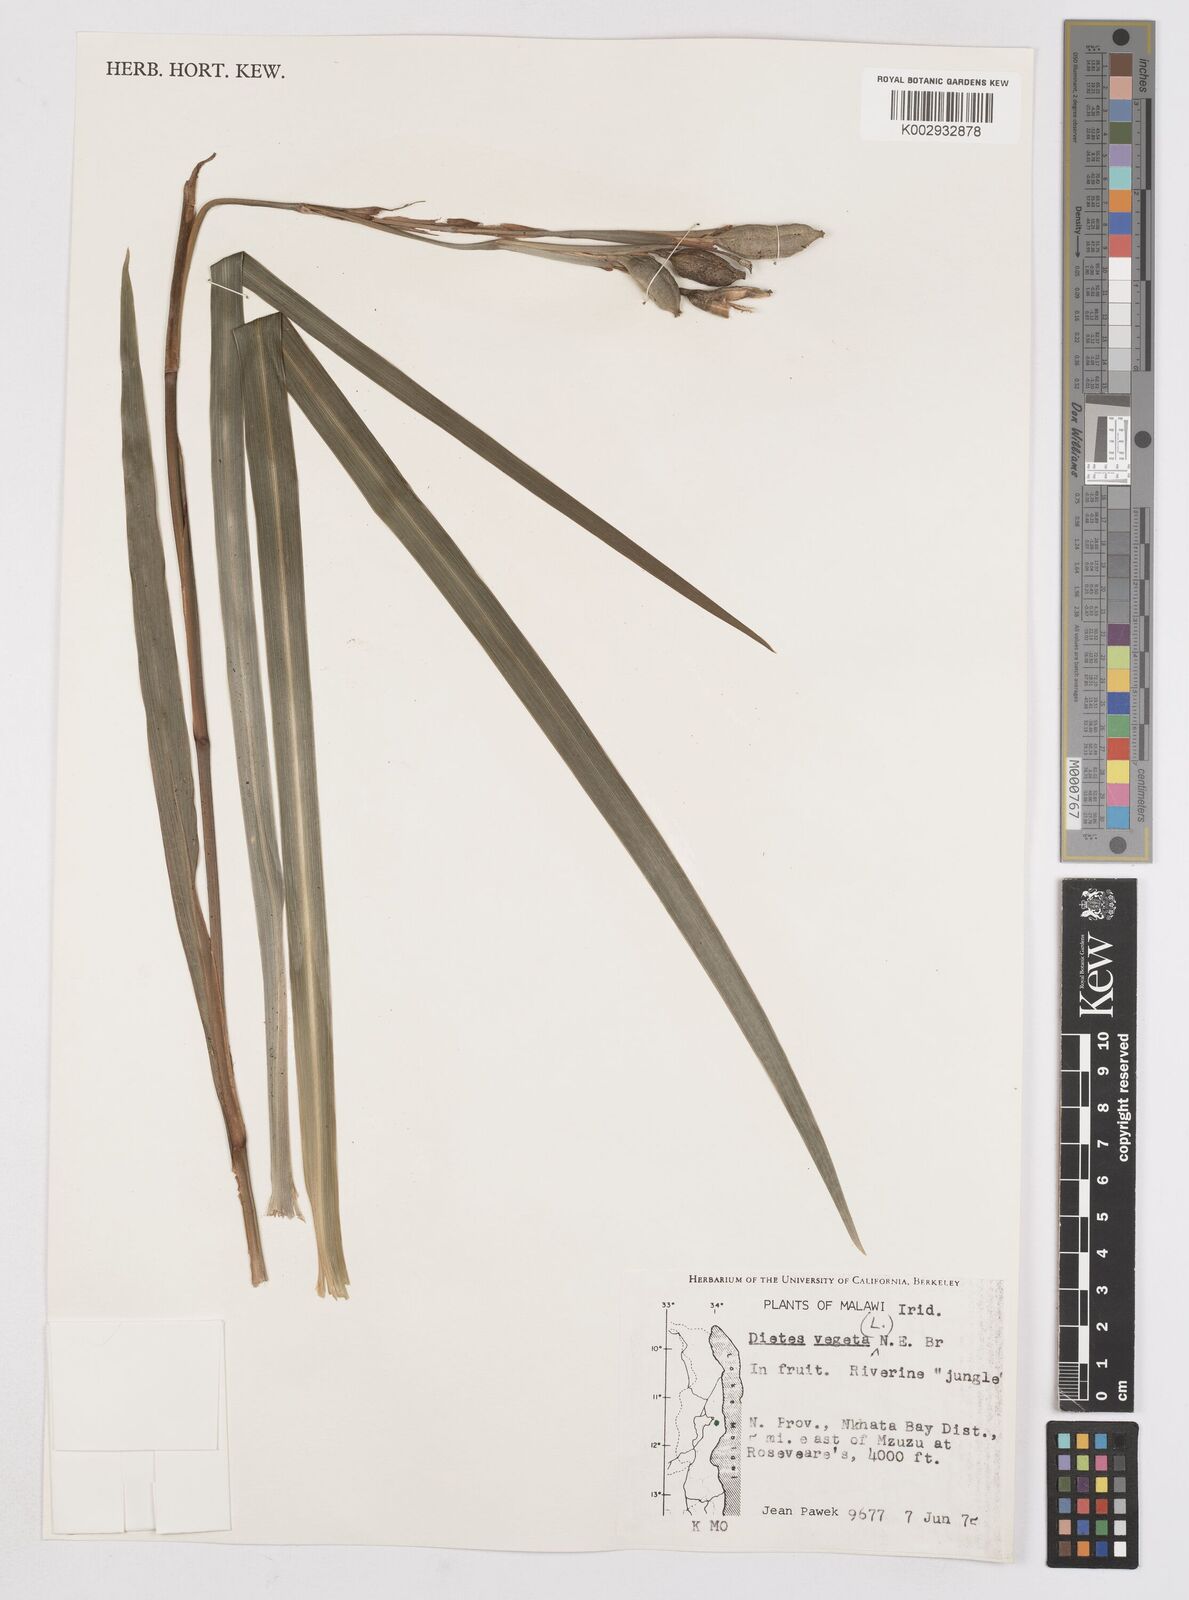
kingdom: Plantae
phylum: Tracheophyta
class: Liliopsida
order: Asparagales
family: Iridaceae
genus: Dietes
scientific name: Dietes iridioides
